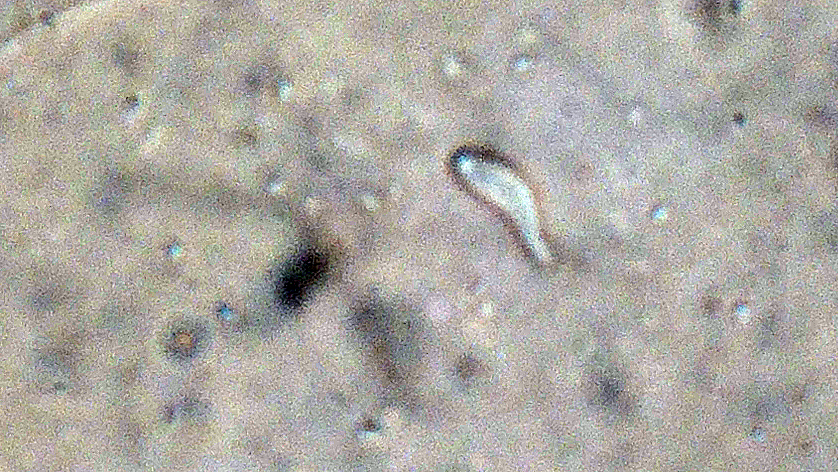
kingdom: Fungi
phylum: Ascomycota
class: Orbiliomycetes
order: Orbiliales
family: Orbiliaceae
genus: Orbilia
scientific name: Orbilia comma
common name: komma-voksskive
